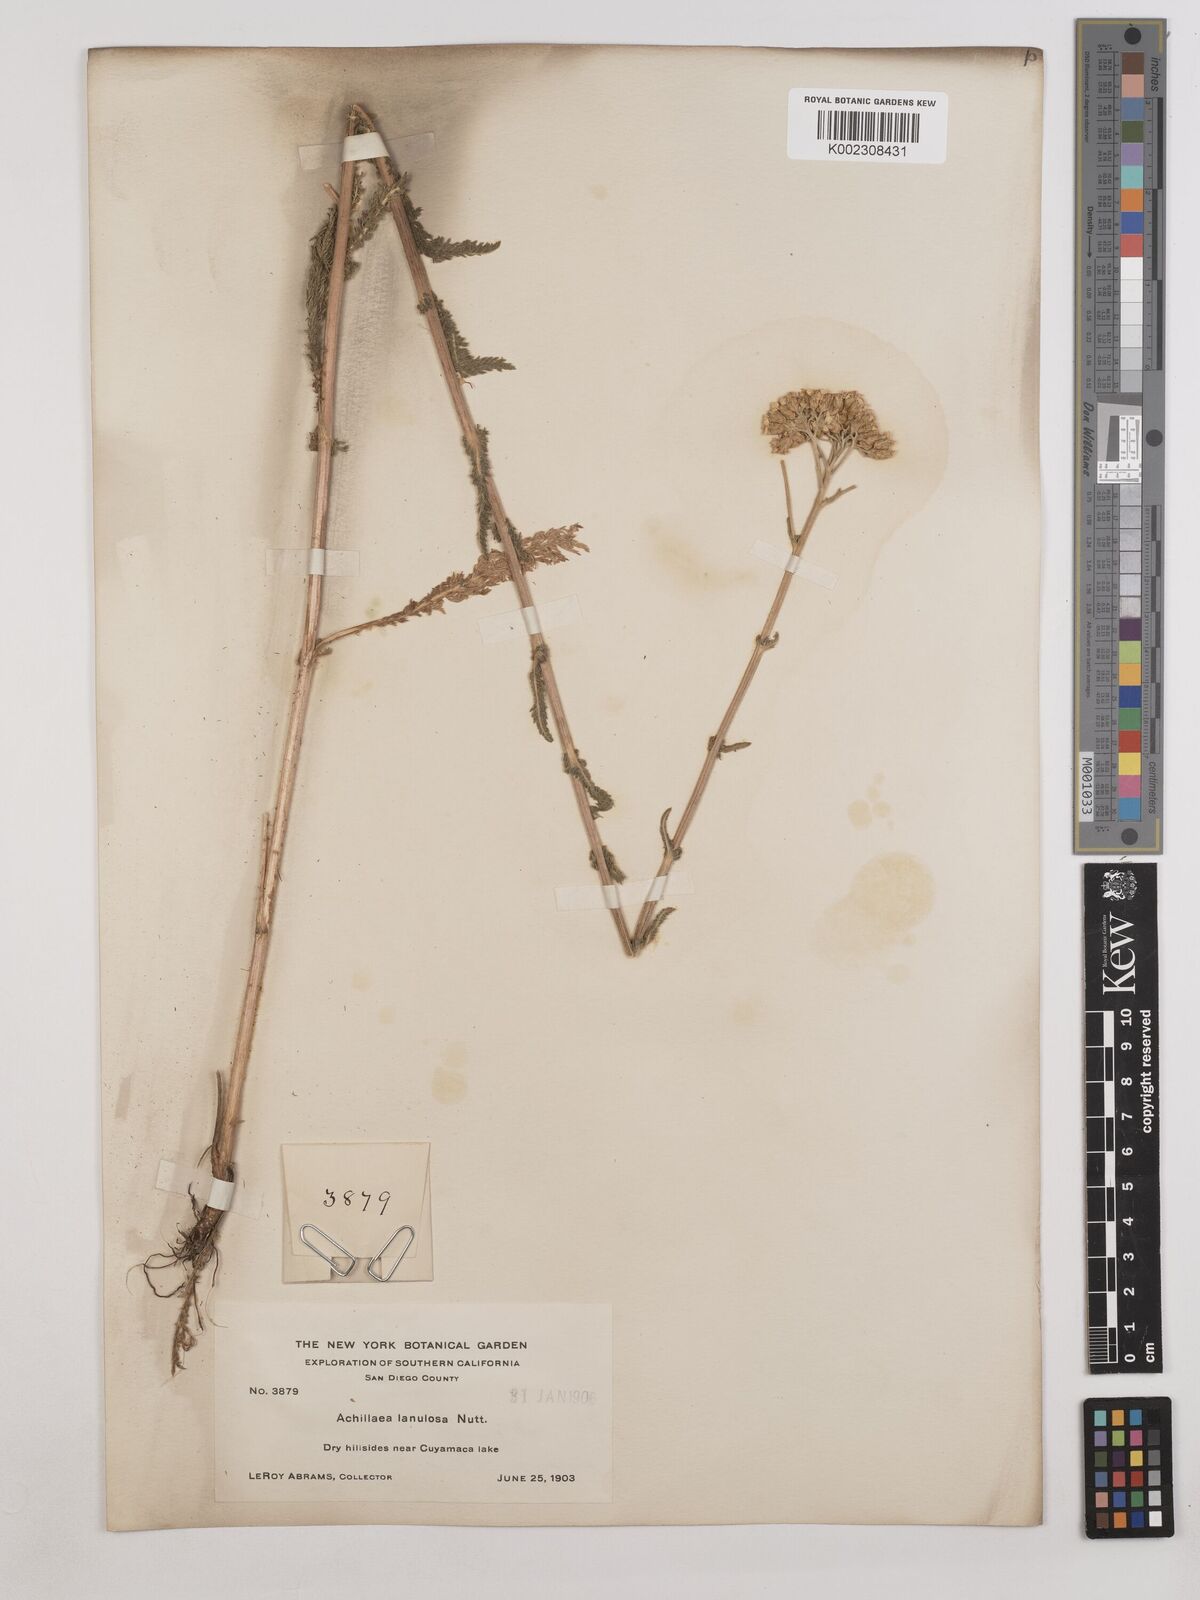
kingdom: Plantae
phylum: Tracheophyta
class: Magnoliopsida
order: Asterales
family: Asteraceae
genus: Achillea
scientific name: Achillea millefolium
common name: Yarrow
